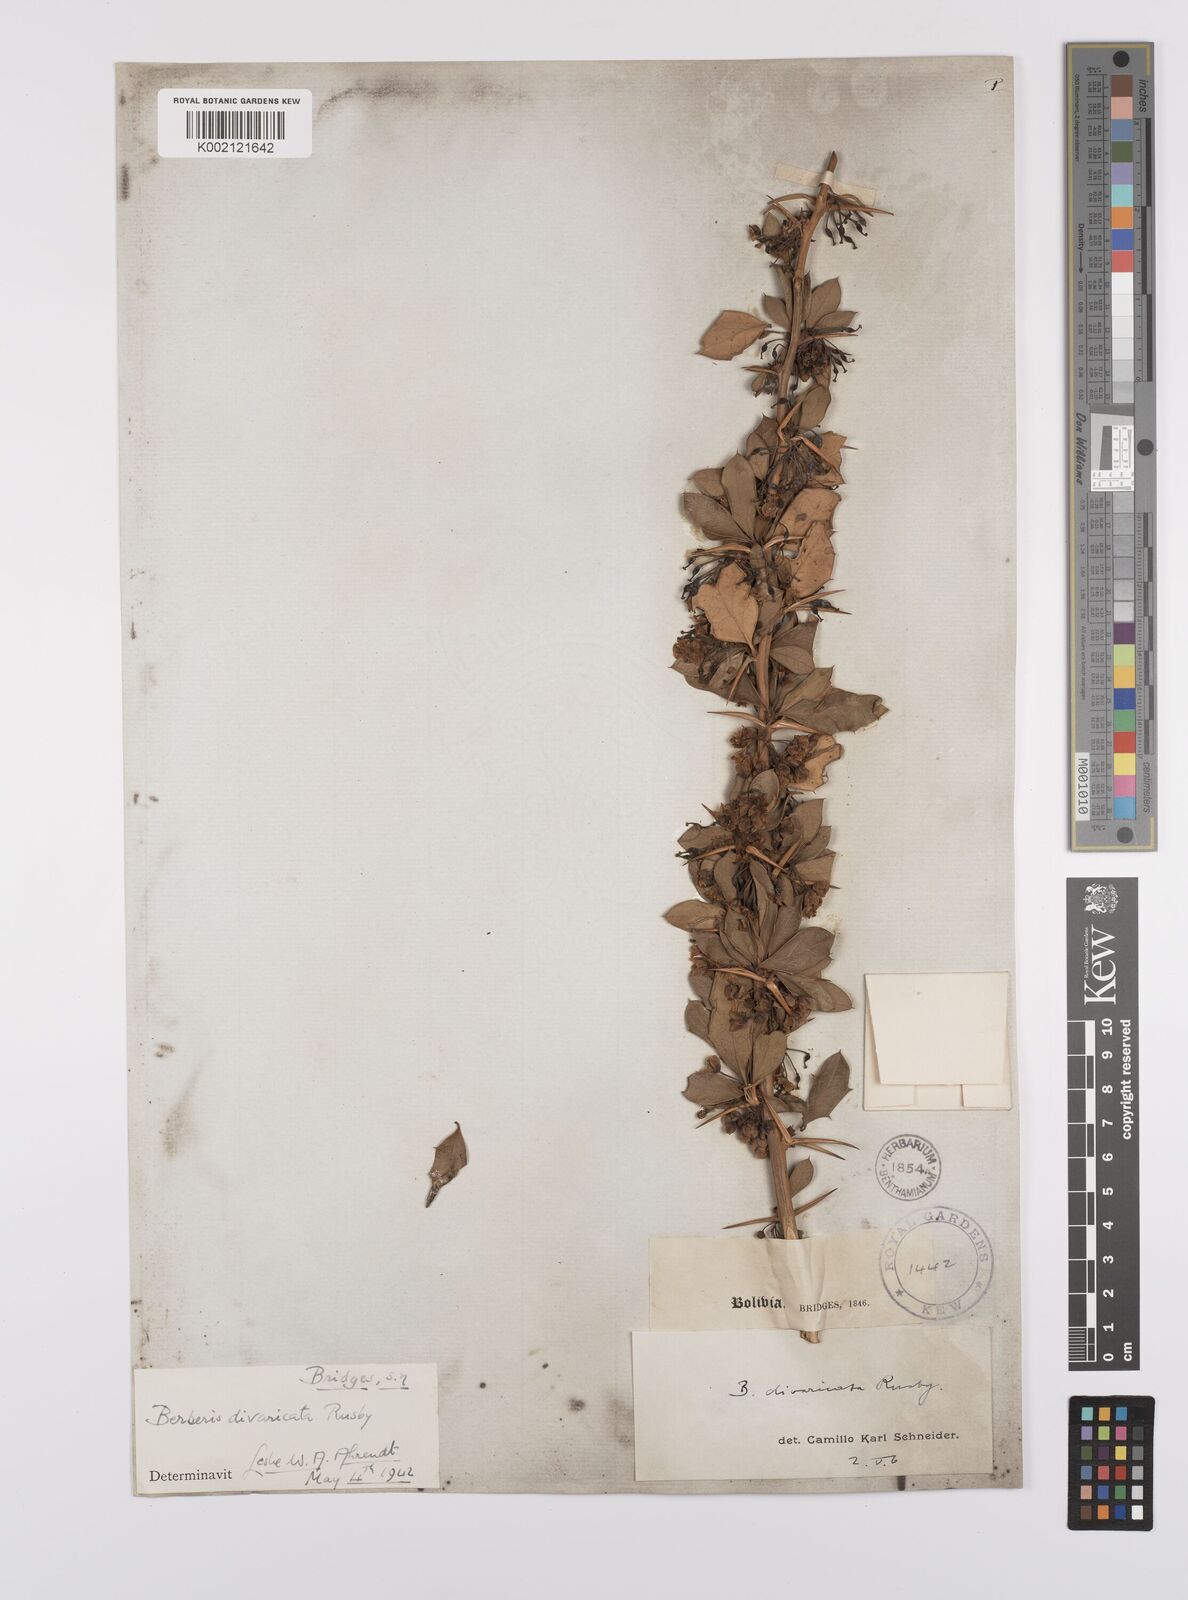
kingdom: Plantae
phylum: Tracheophyta
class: Magnoliopsida
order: Ranunculales
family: Berberidaceae
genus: Berberis
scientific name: Berberis commutata
